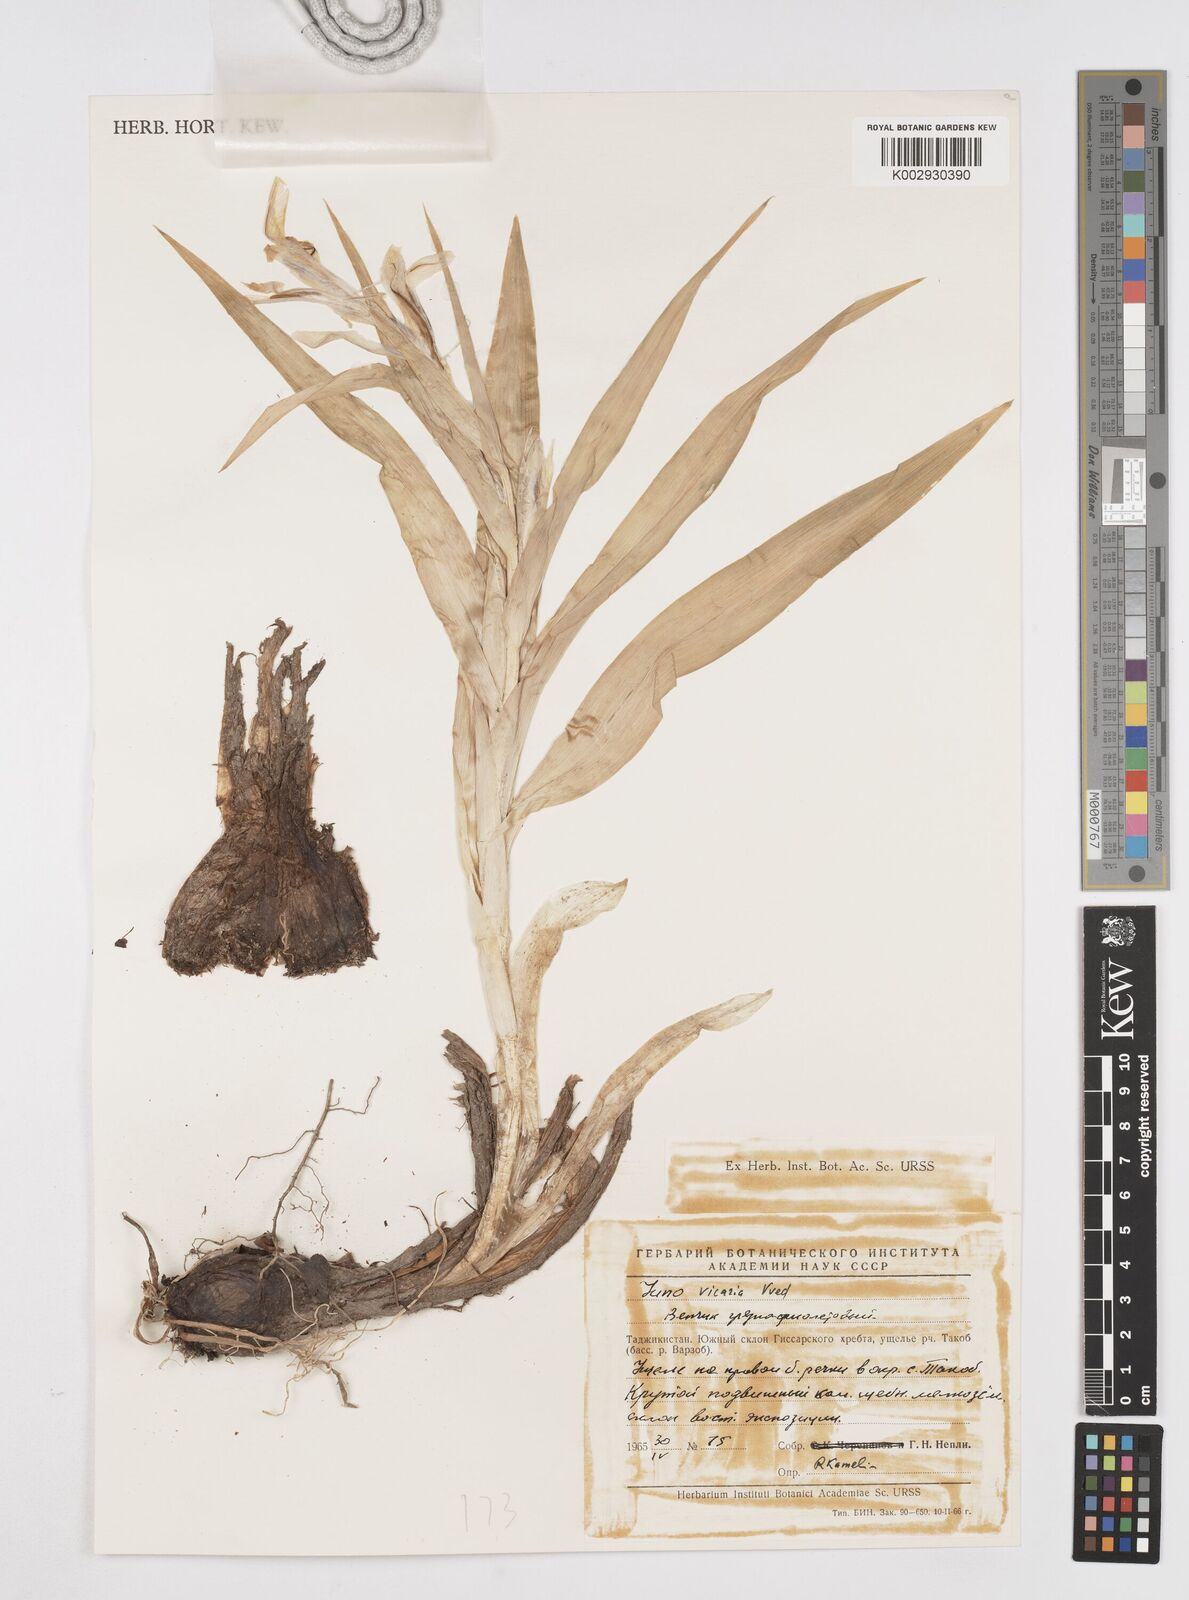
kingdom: Plantae
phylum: Tracheophyta
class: Liliopsida
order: Asparagales
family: Iridaceae
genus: Iris
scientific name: Iris vicaria
